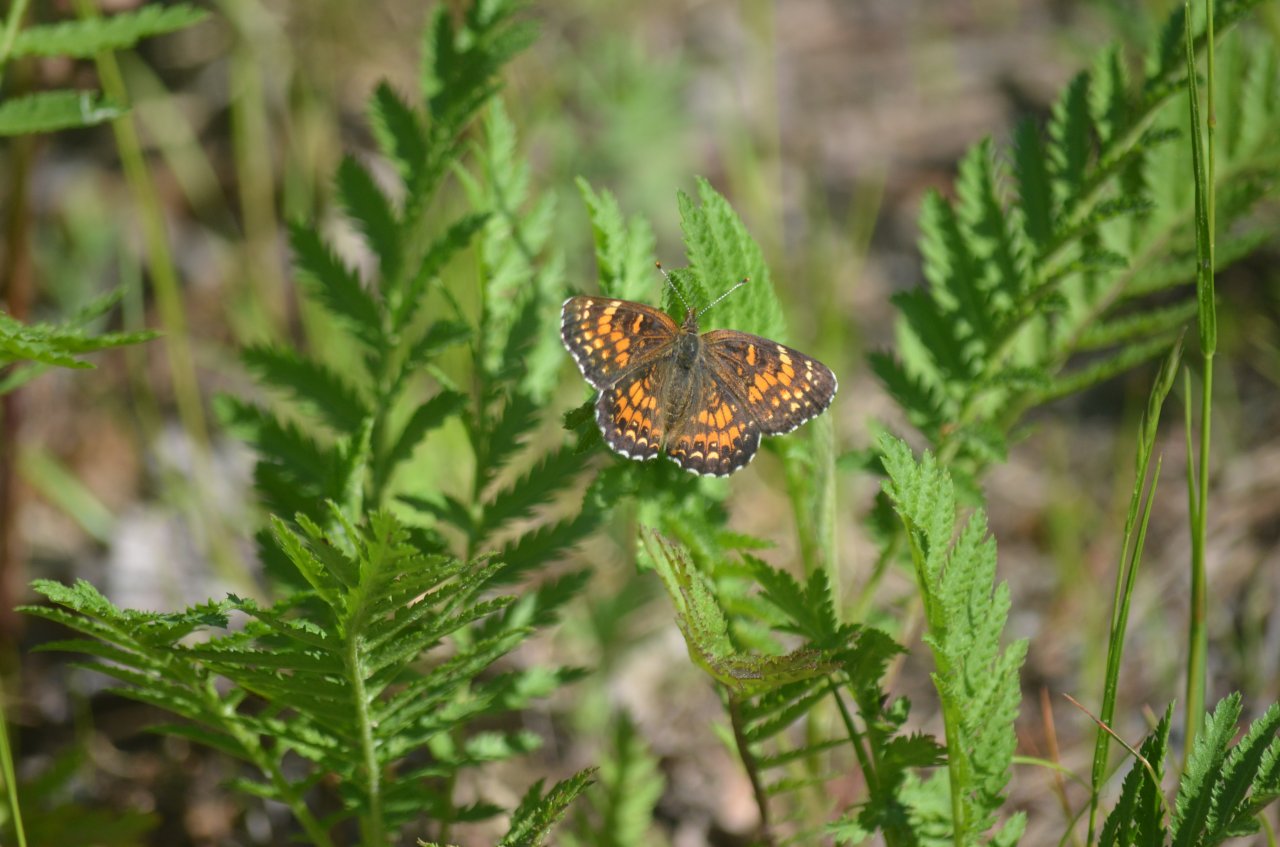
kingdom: Animalia
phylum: Arthropoda
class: Insecta
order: Lepidoptera
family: Nymphalidae
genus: Chlosyne
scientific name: Chlosyne harrisii
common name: Harris's Checkerspot
